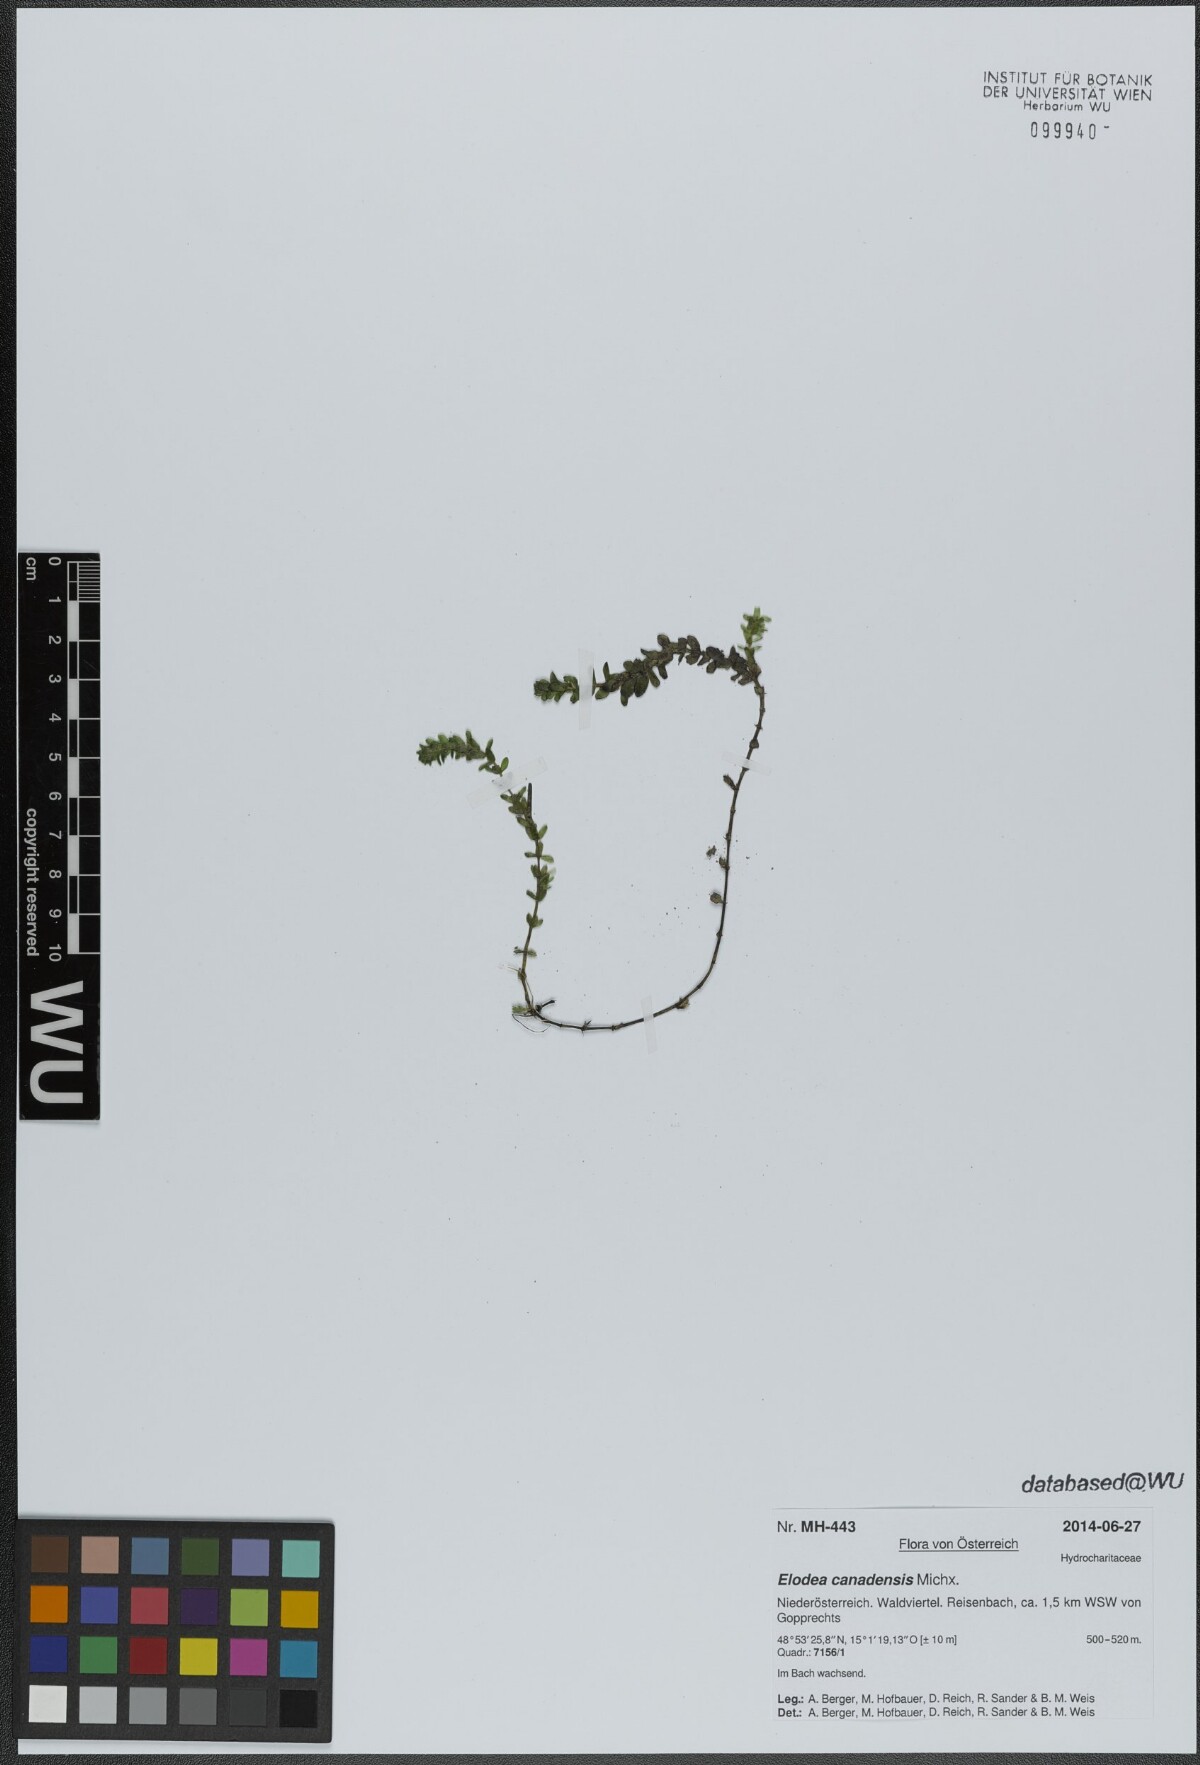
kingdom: Plantae
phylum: Tracheophyta
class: Liliopsida
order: Alismatales
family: Hydrocharitaceae
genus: Elodea
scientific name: Elodea canadensis
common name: Canadian waterweed
